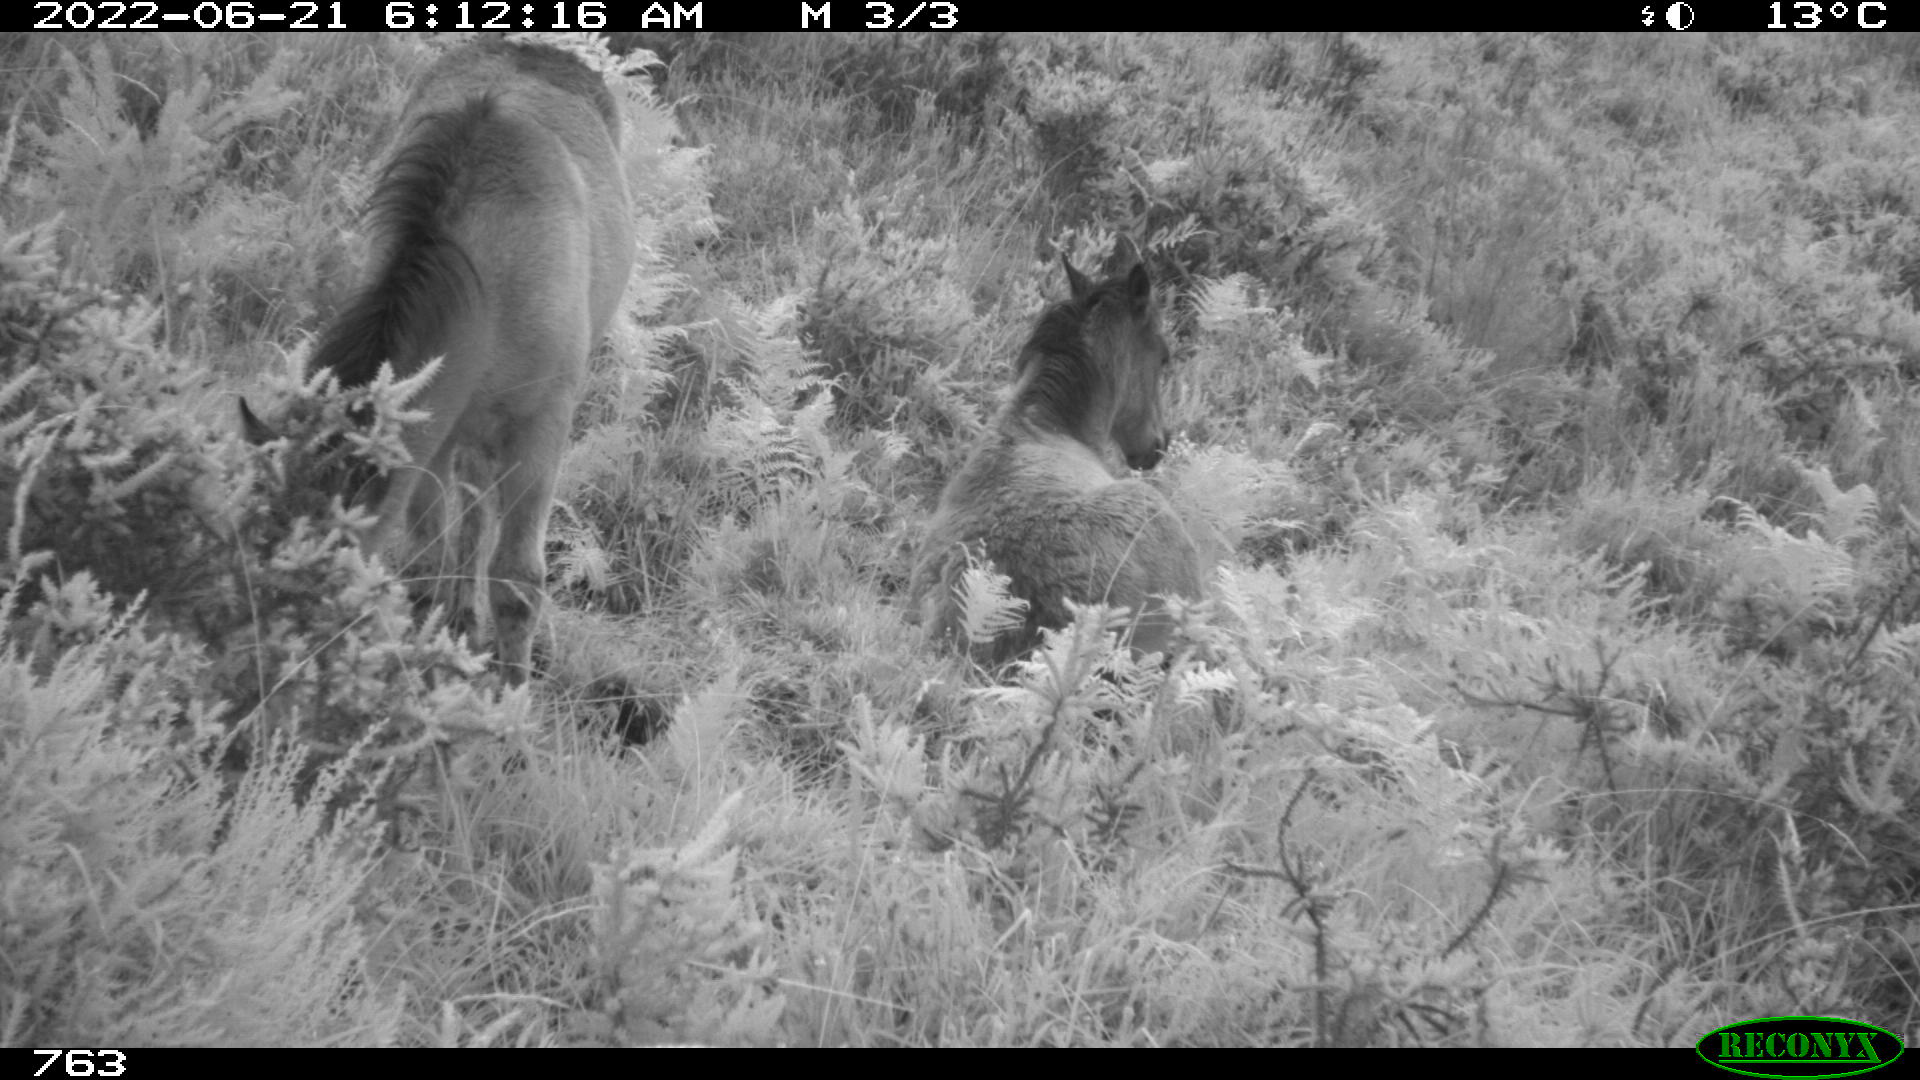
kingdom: Animalia
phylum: Chordata
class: Mammalia
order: Perissodactyla
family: Equidae
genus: Equus
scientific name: Equus caballus
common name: Horse
